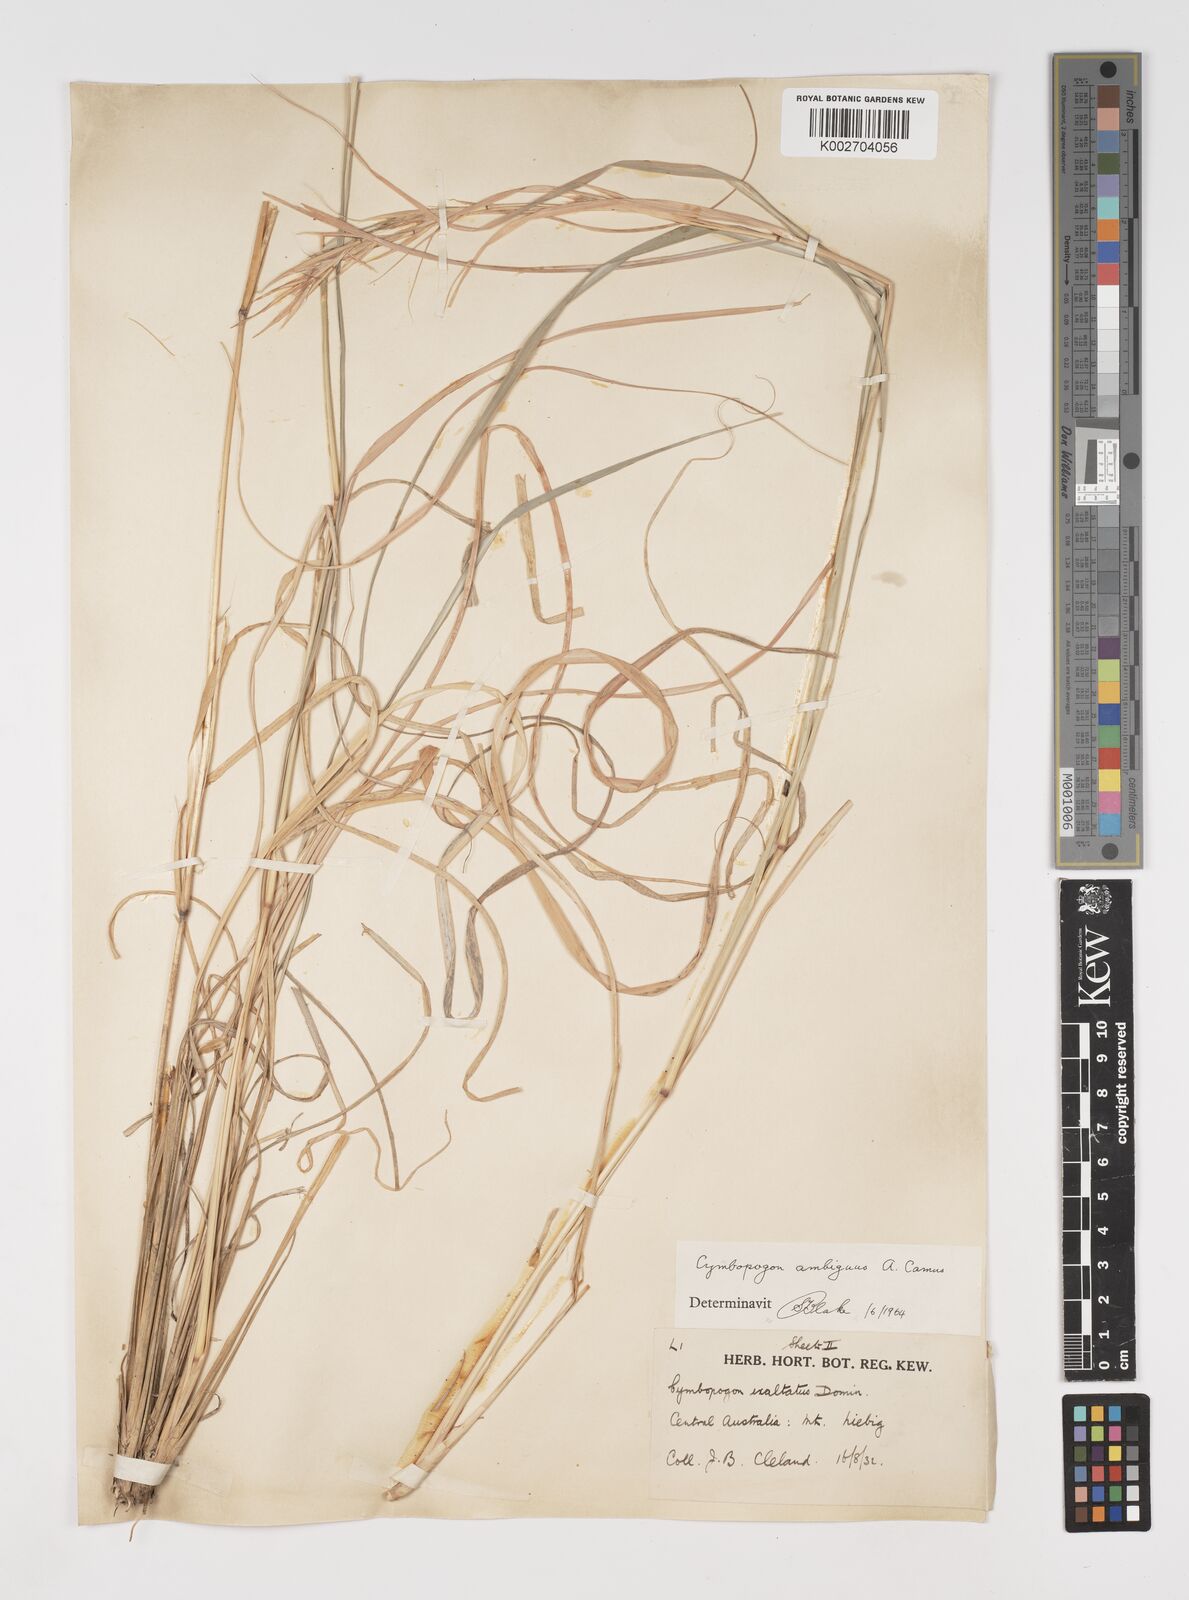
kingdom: Plantae
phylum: Tracheophyta
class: Liliopsida
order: Poales
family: Poaceae
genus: Cymbopogon
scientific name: Cymbopogon ambiguus
